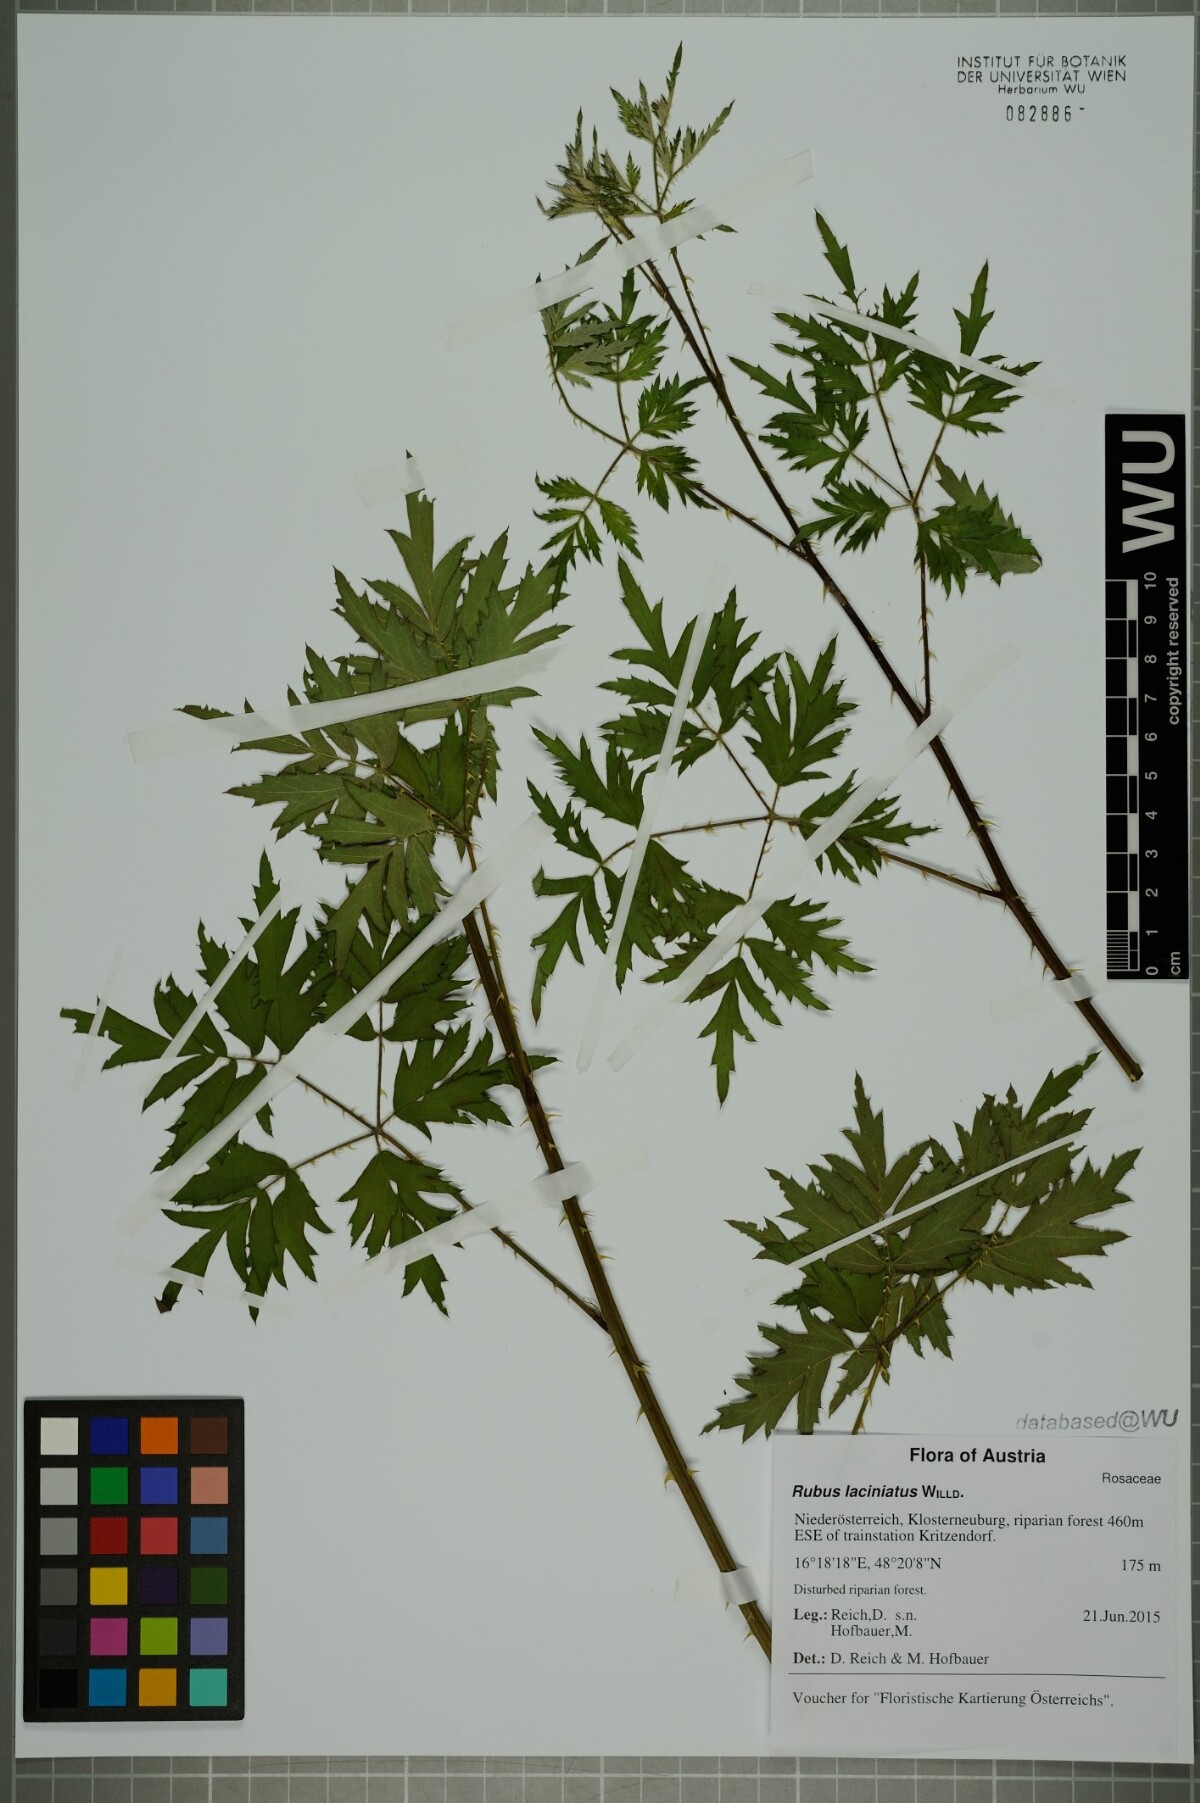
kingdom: Plantae
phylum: Tracheophyta
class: Magnoliopsida
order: Rosales
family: Rosaceae
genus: Rubus
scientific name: Rubus laciniatus
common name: Evergreen blackberry
